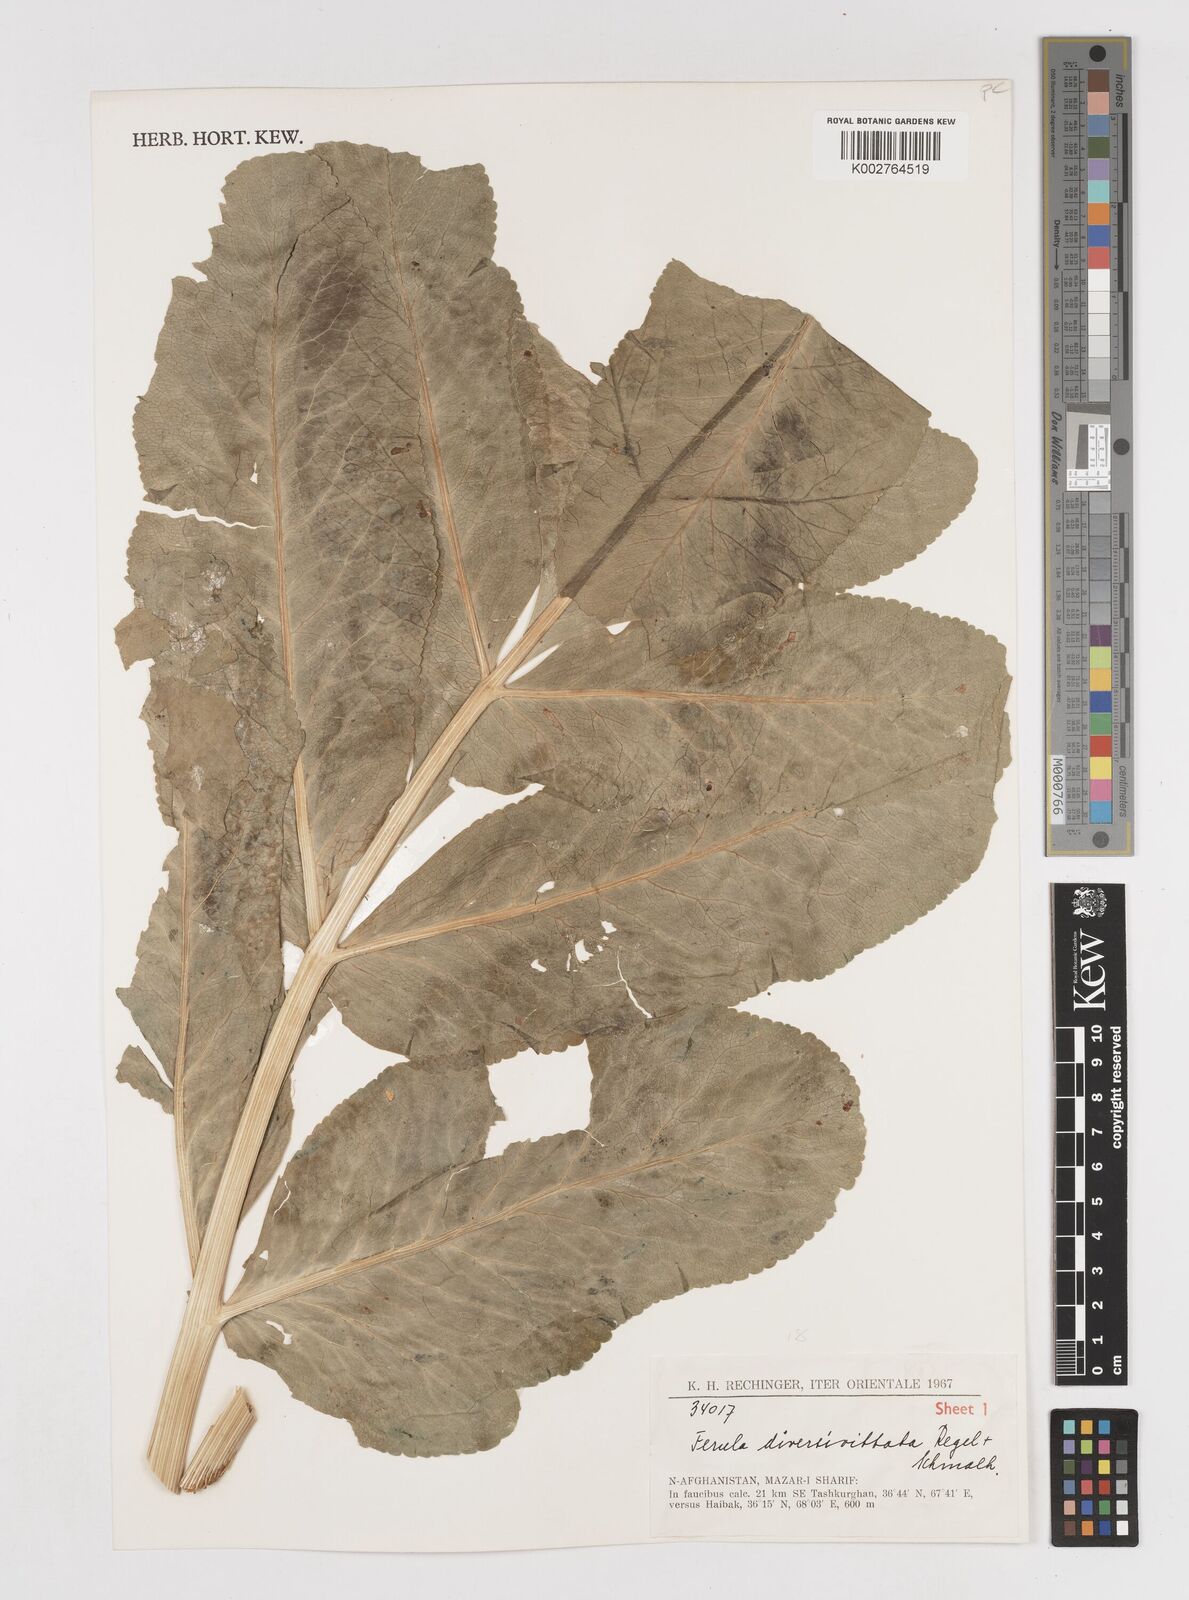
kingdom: Plantae
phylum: Tracheophyta
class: Magnoliopsida
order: Apiales
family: Apiaceae
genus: Ferula
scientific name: Ferula diversivittata
